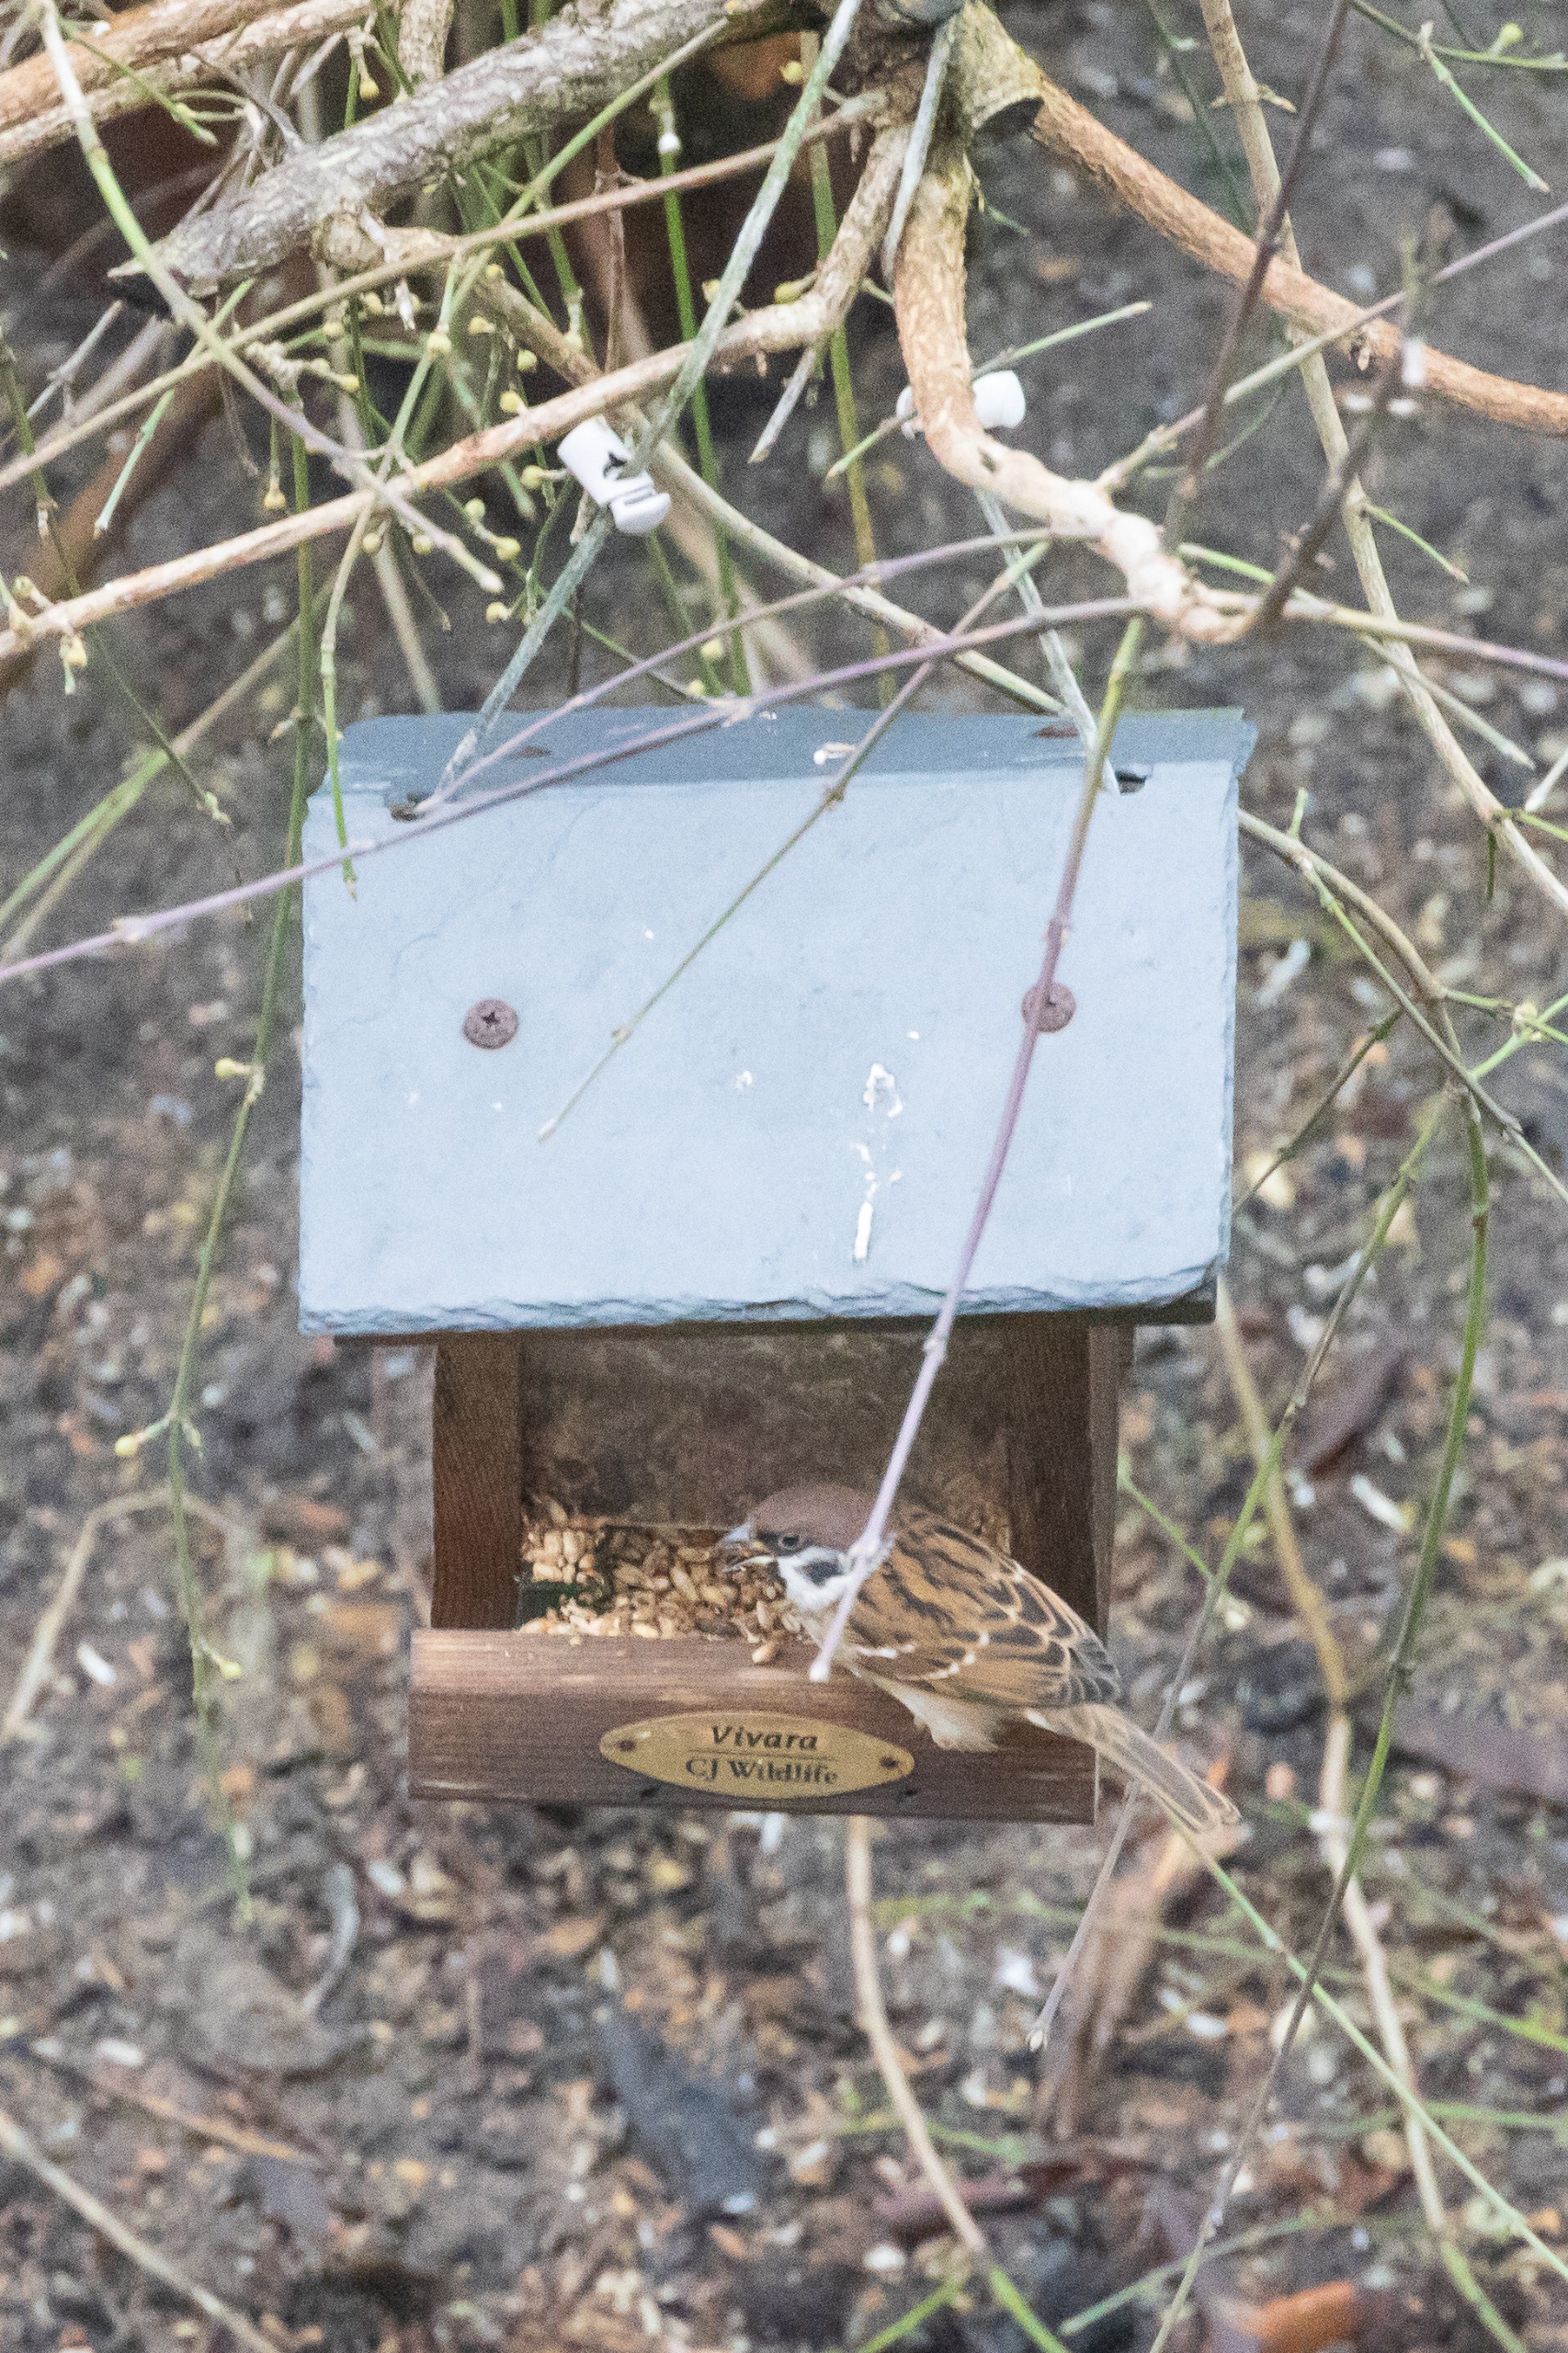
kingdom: Animalia
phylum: Chordata
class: Aves
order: Passeriformes
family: Passeridae
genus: Passer
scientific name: Passer montanus
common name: Skovspurv
